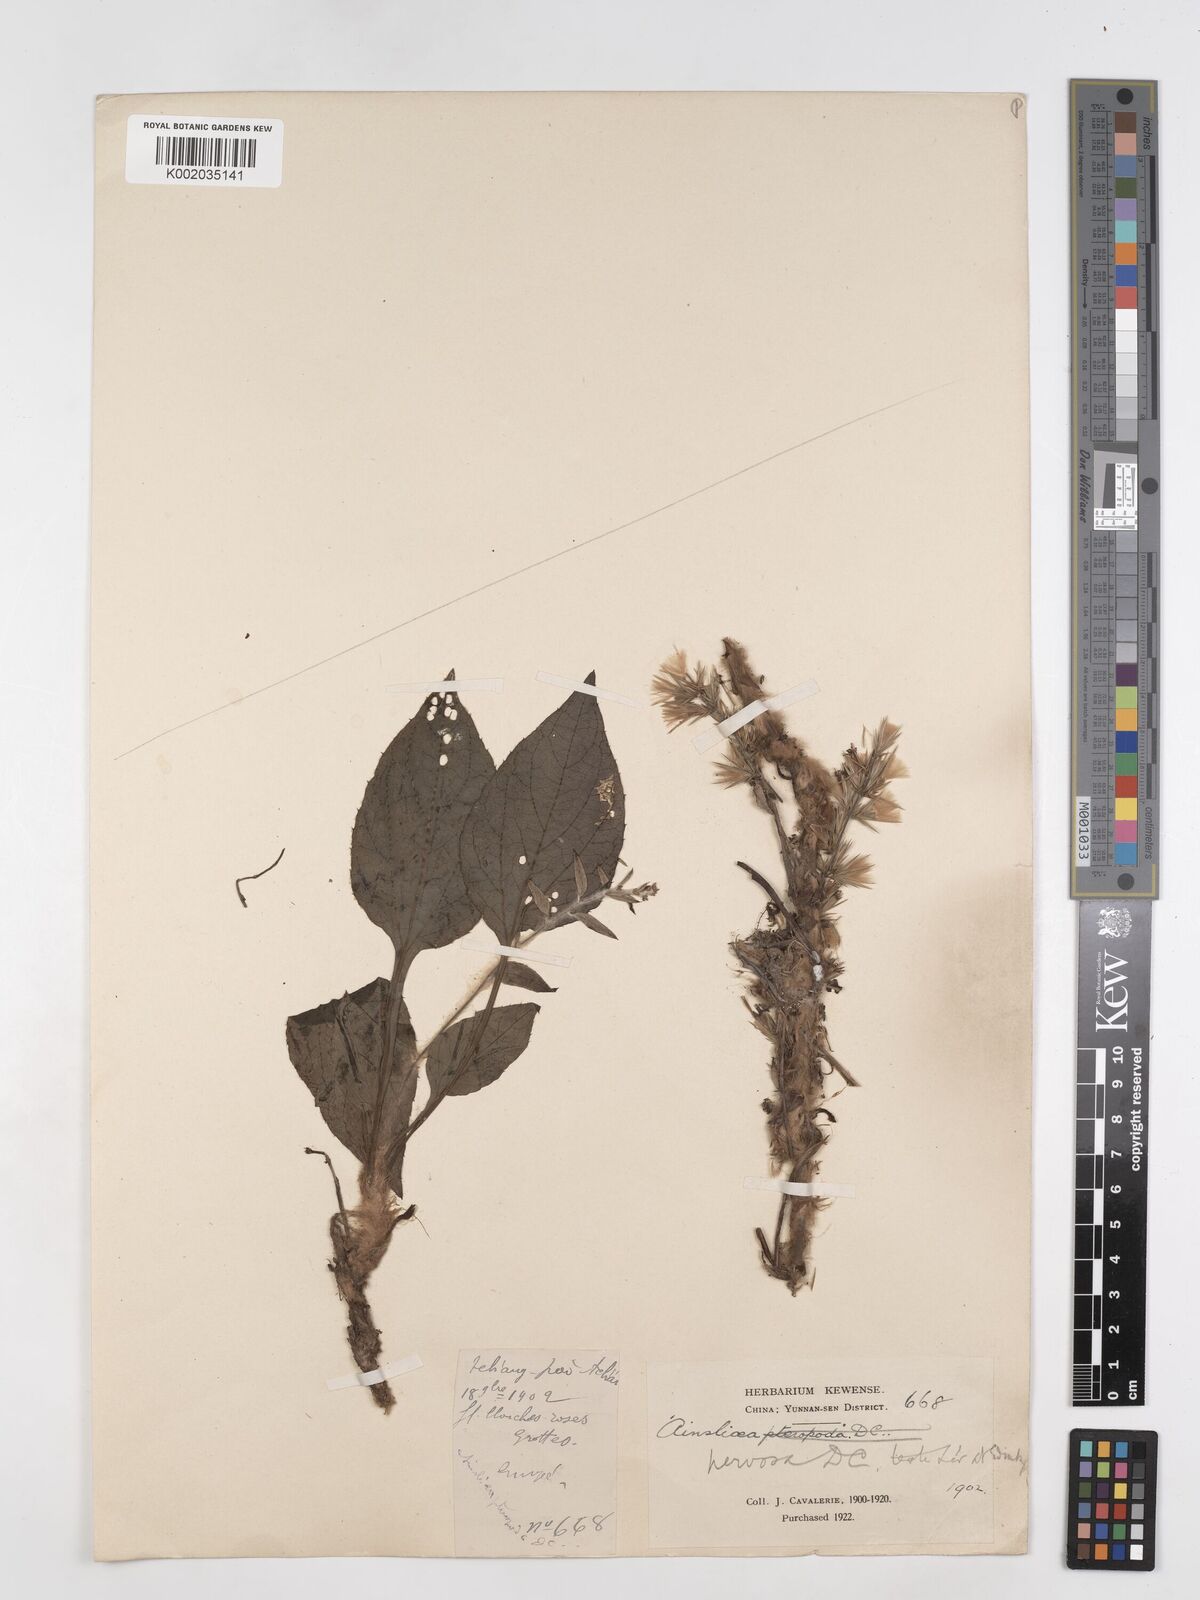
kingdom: Plantae
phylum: Tracheophyta
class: Magnoliopsida
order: Asterales
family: Asteraceae
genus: Ainsliaea
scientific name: Ainsliaea nervosa
